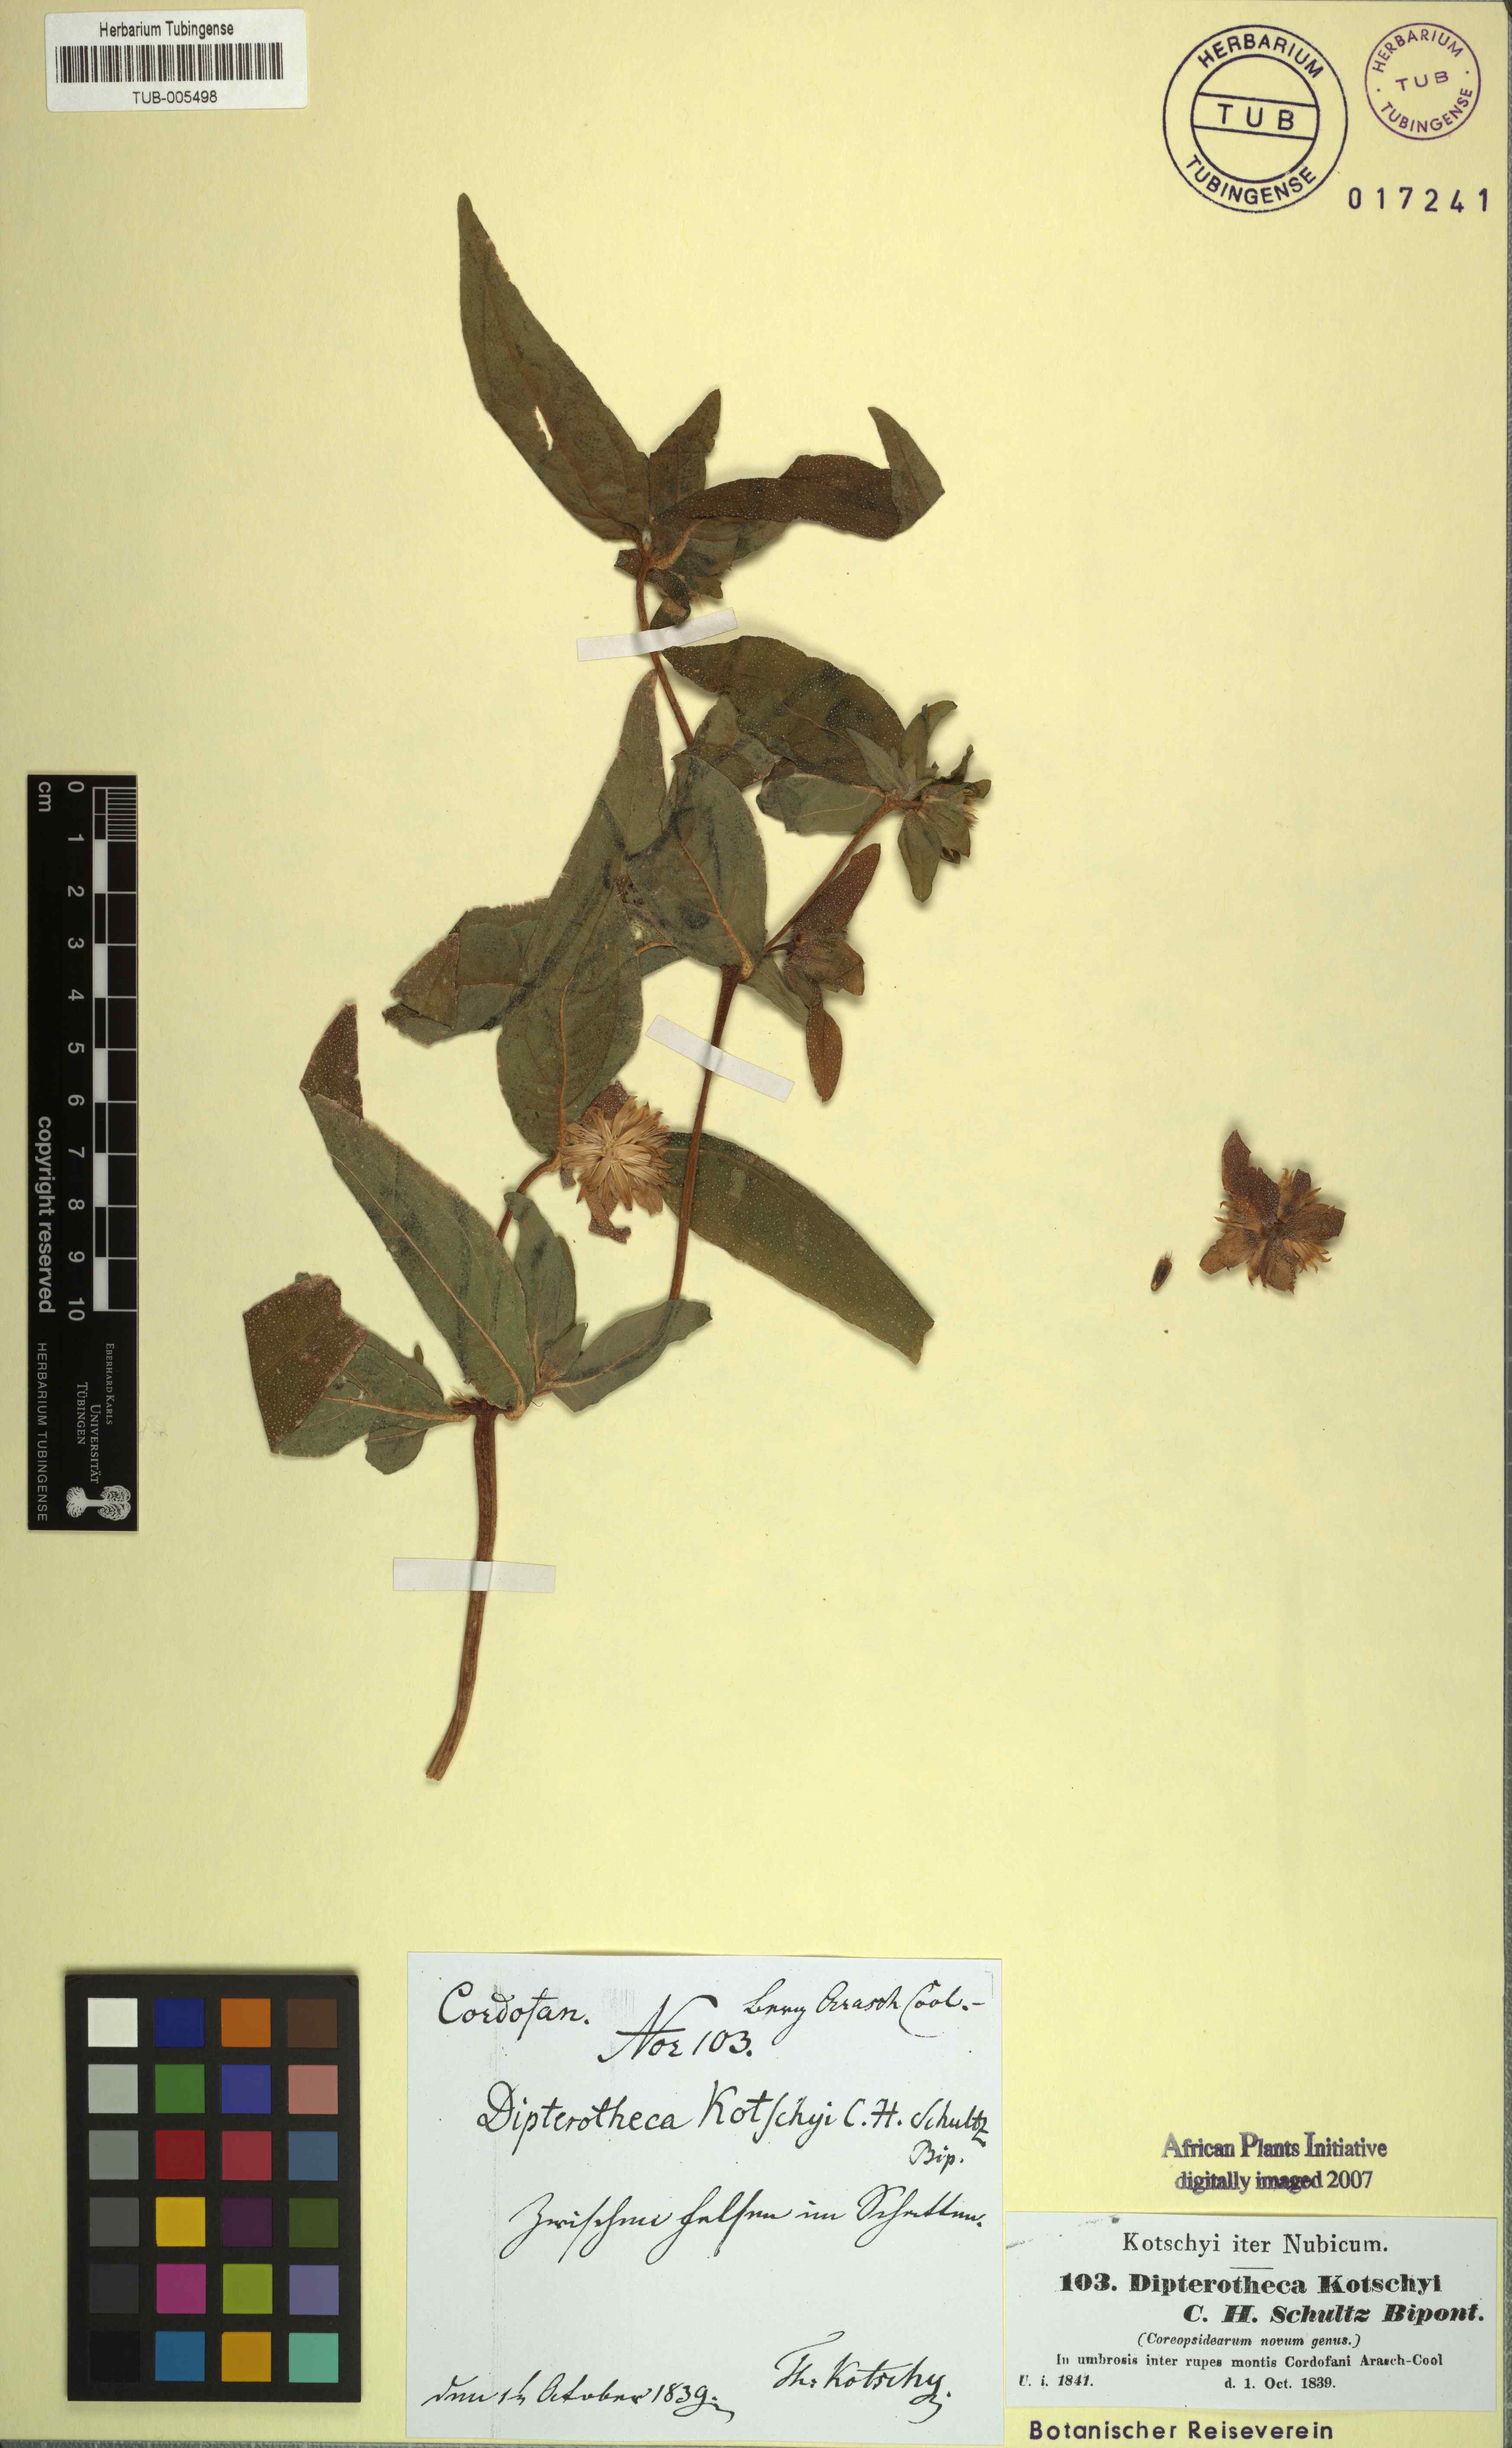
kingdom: Plantae
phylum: Tracheophyta
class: Magnoliopsida
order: Asterales
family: Asteraceae
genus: Aspilia
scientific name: Aspilia kotschyi
